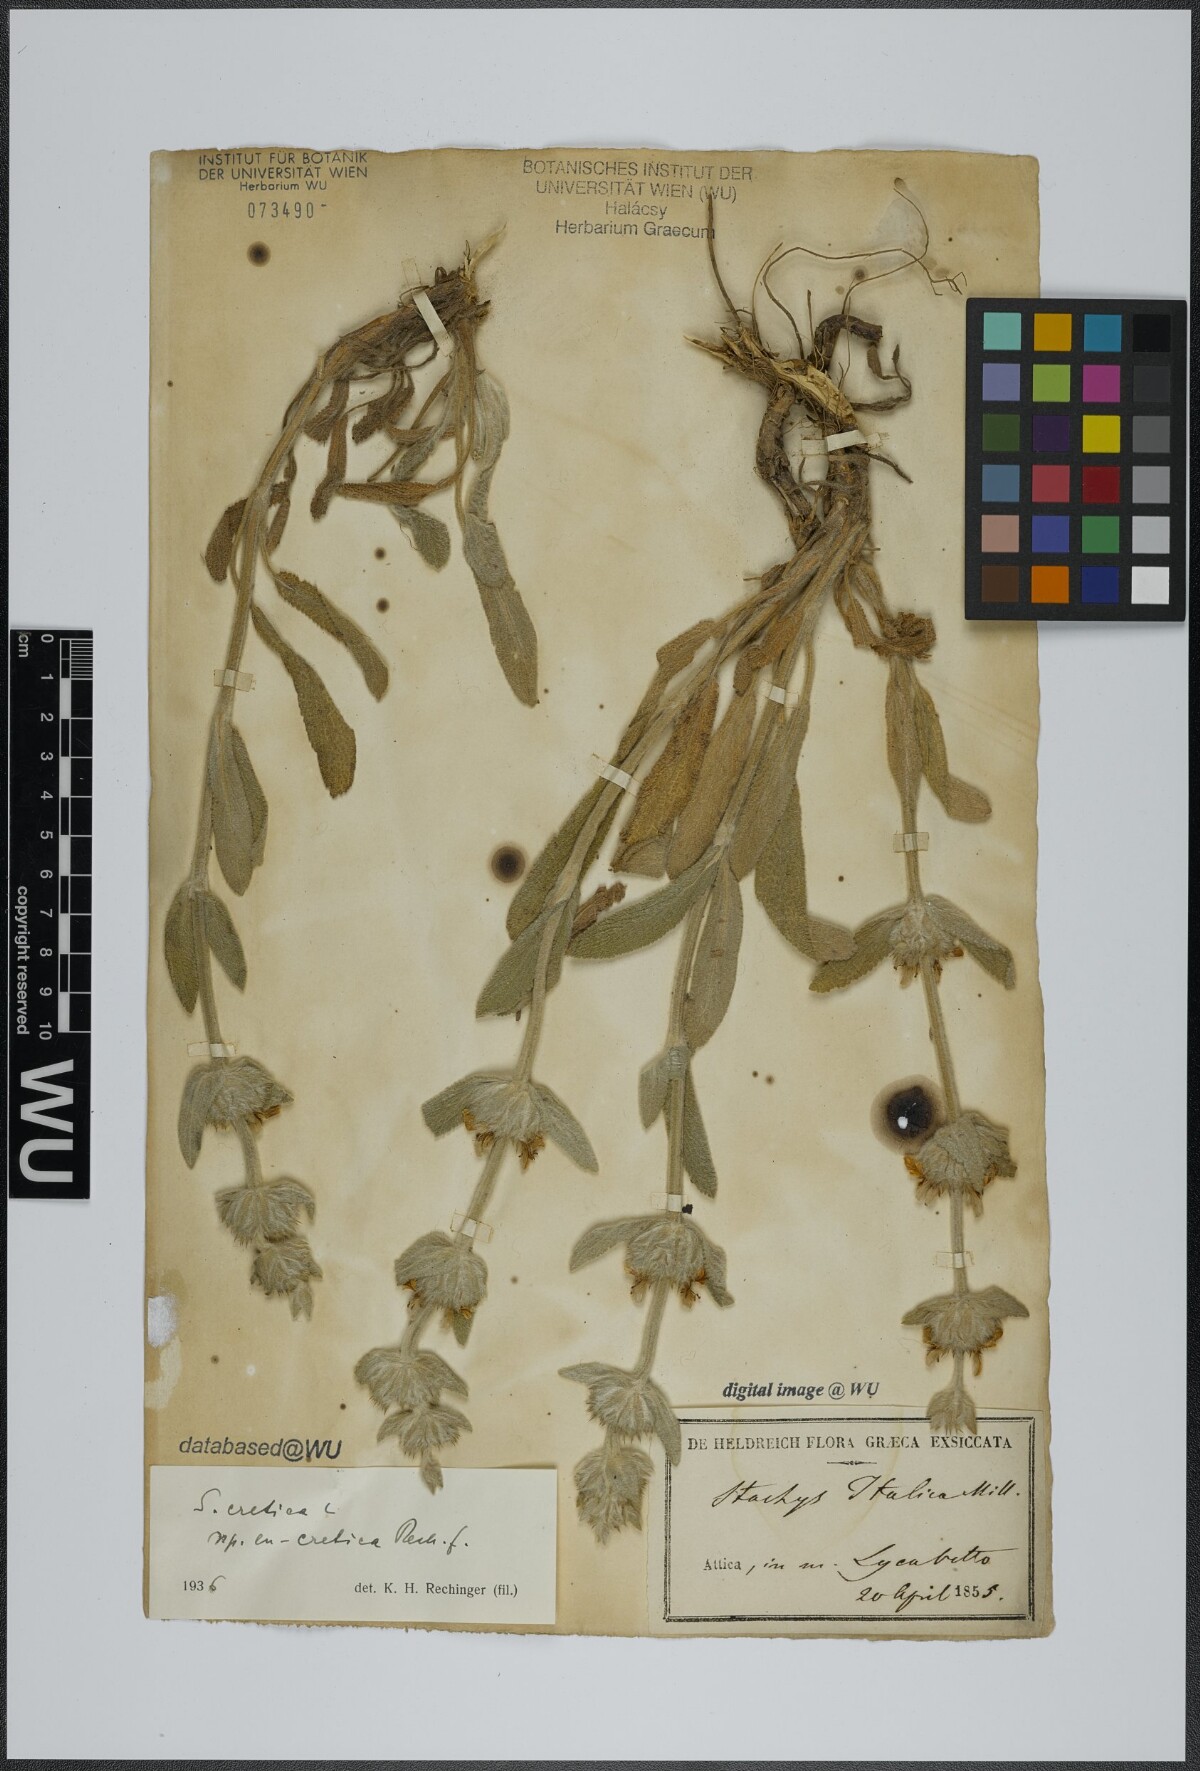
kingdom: Plantae
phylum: Tracheophyta
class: Magnoliopsida
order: Lamiales
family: Lamiaceae
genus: Stachys
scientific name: Stachys cretica
